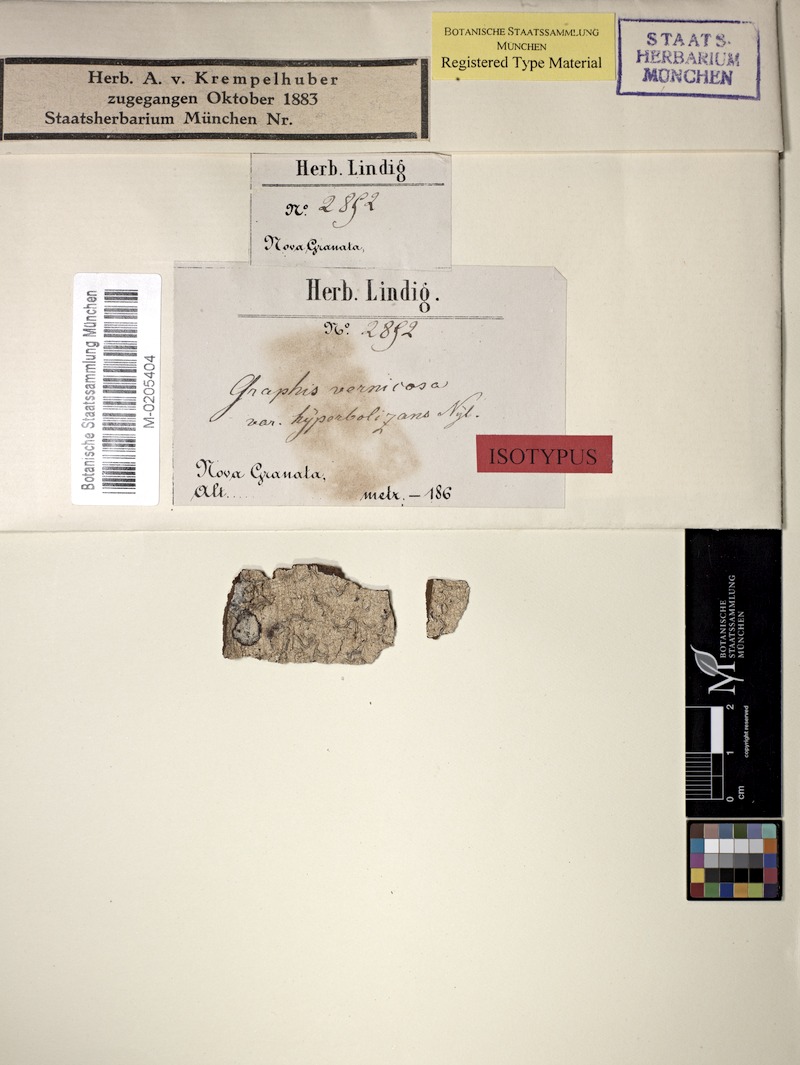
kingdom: Fungi
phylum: Ascomycota
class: Lecanoromycetes
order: Ostropales
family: Graphidaceae
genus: Allographa
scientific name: Allographa acharii
